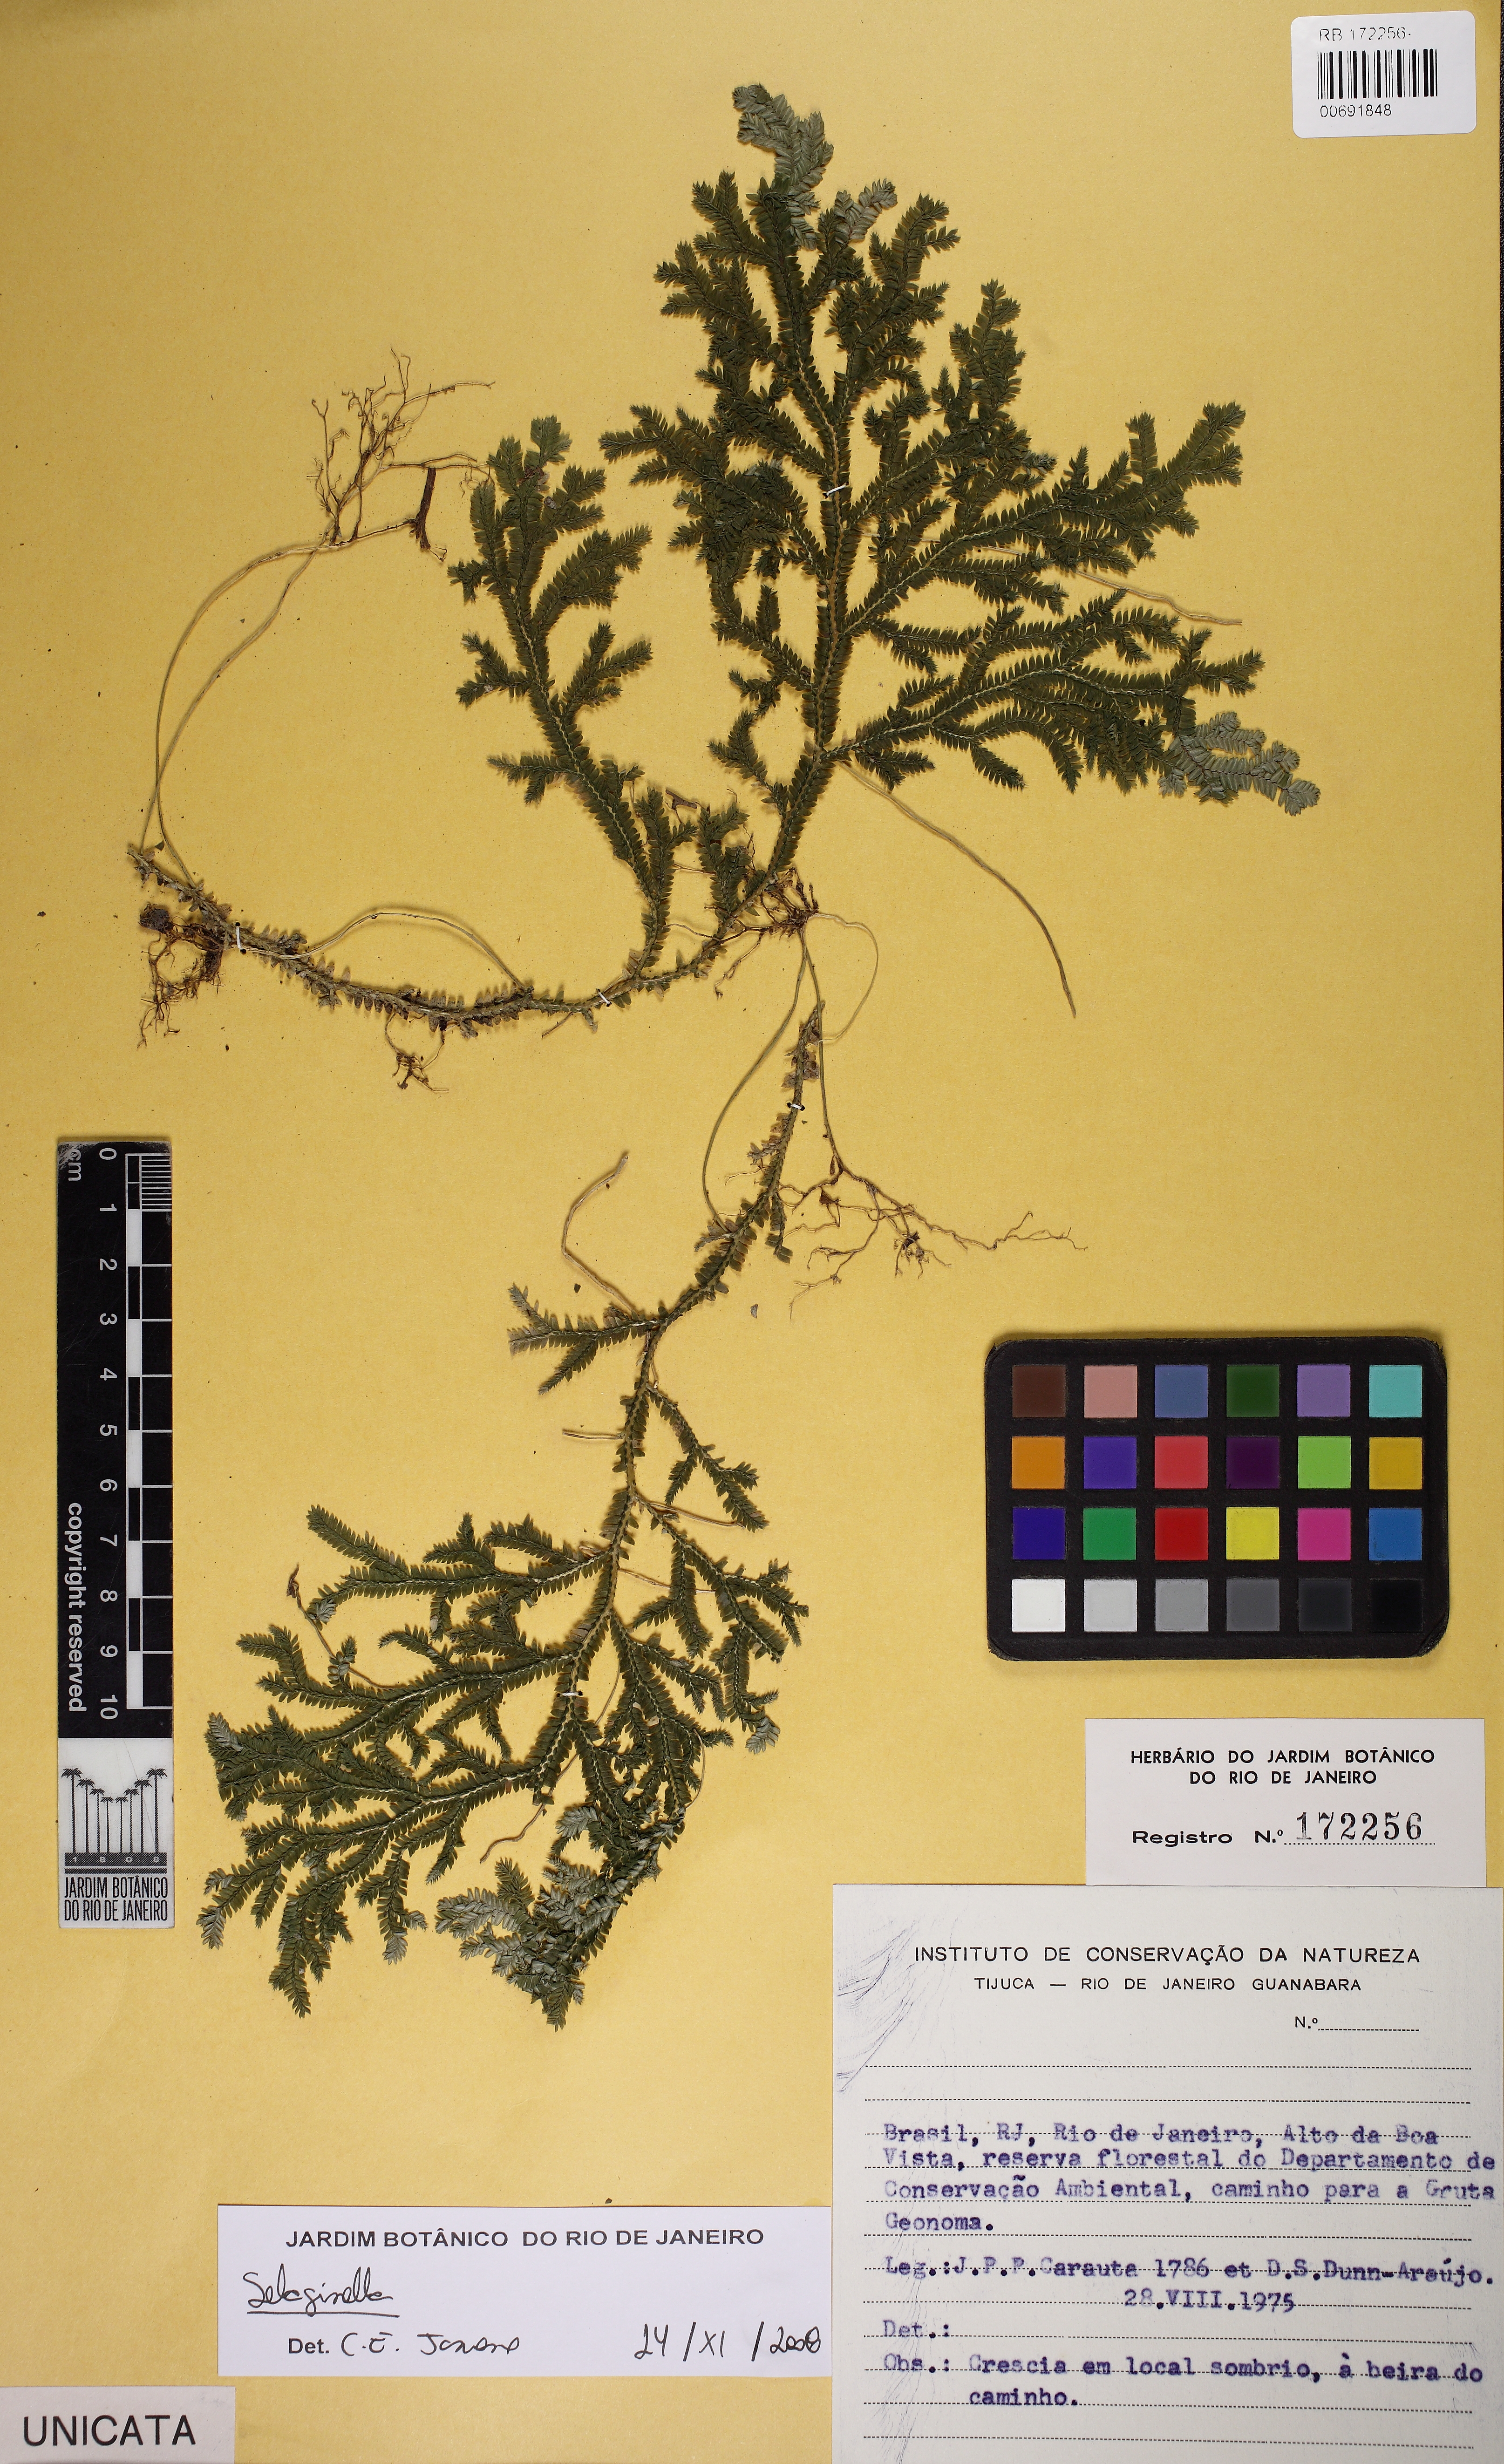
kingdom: Plantae
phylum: Tracheophyta
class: Lycopodiopsida
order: Selaginellales
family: Selaginellaceae
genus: Selaginella
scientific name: Selaginella flexuosa
